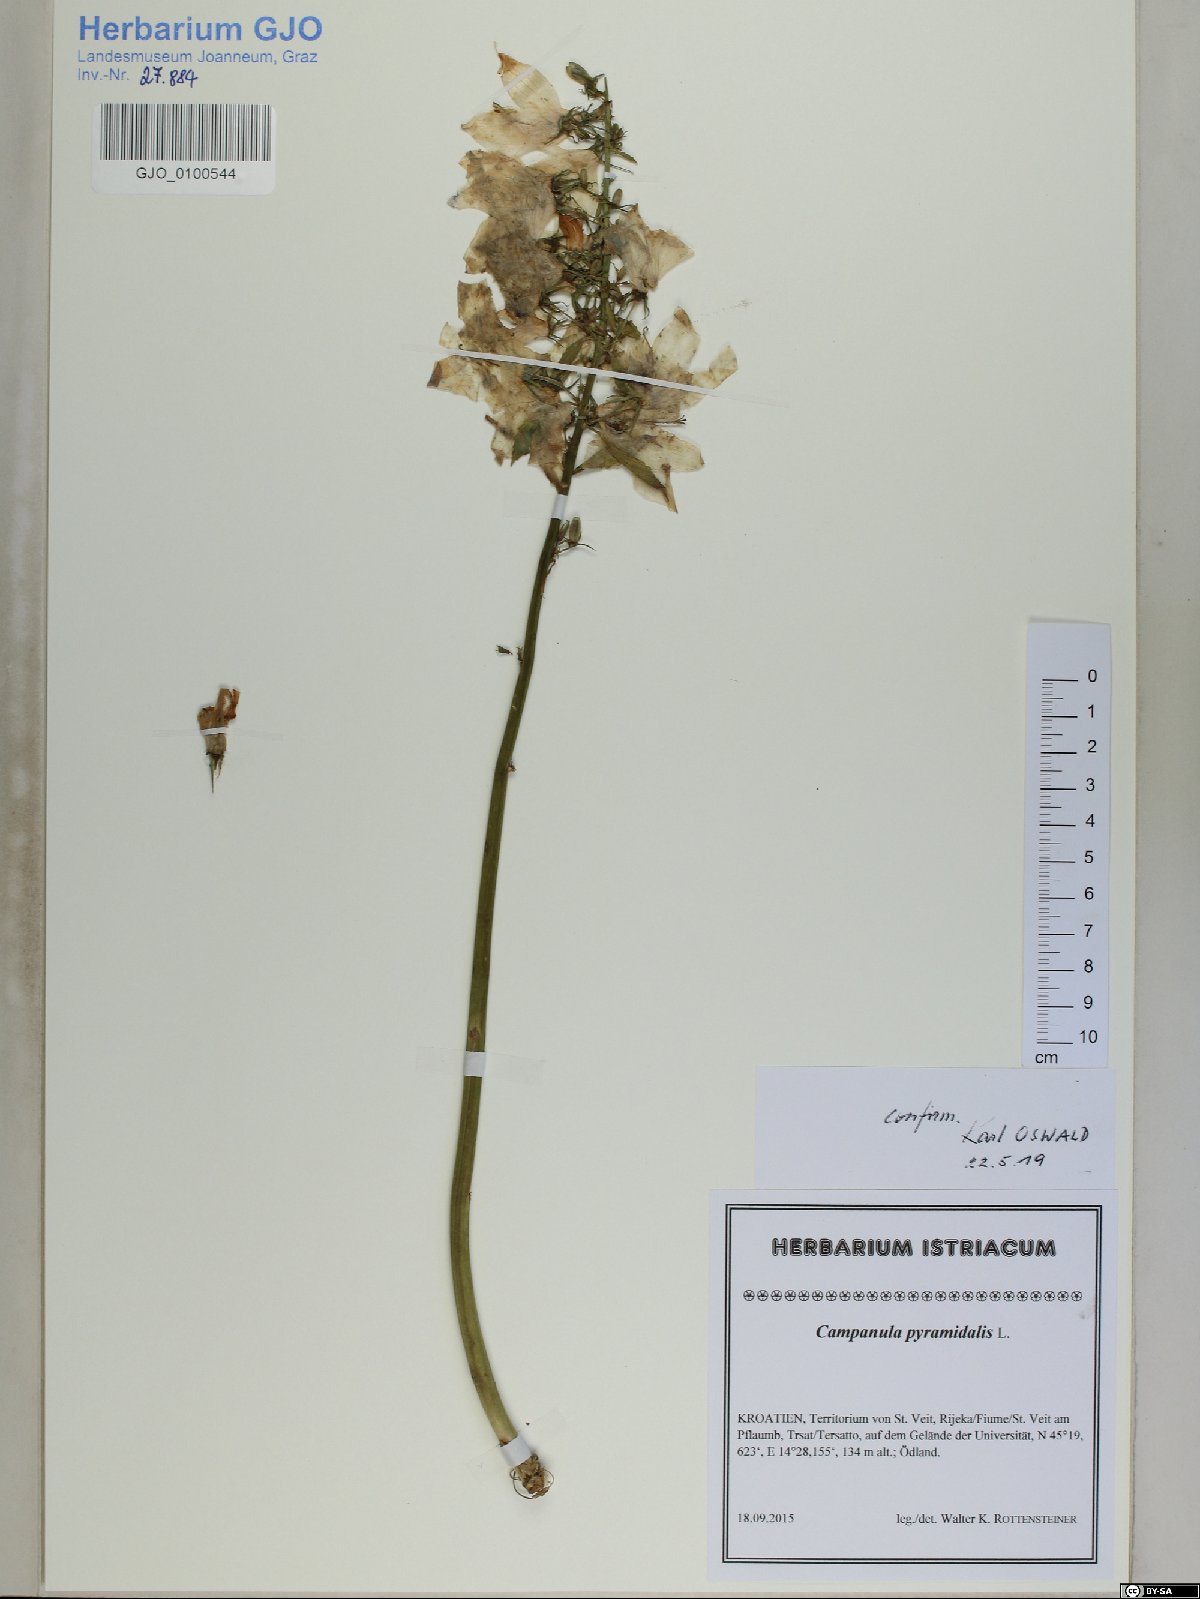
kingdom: Plantae
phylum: Tracheophyta
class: Magnoliopsida
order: Asterales
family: Campanulaceae
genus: Campanula
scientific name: Campanula pyramidalis
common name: Chimney bellflower
